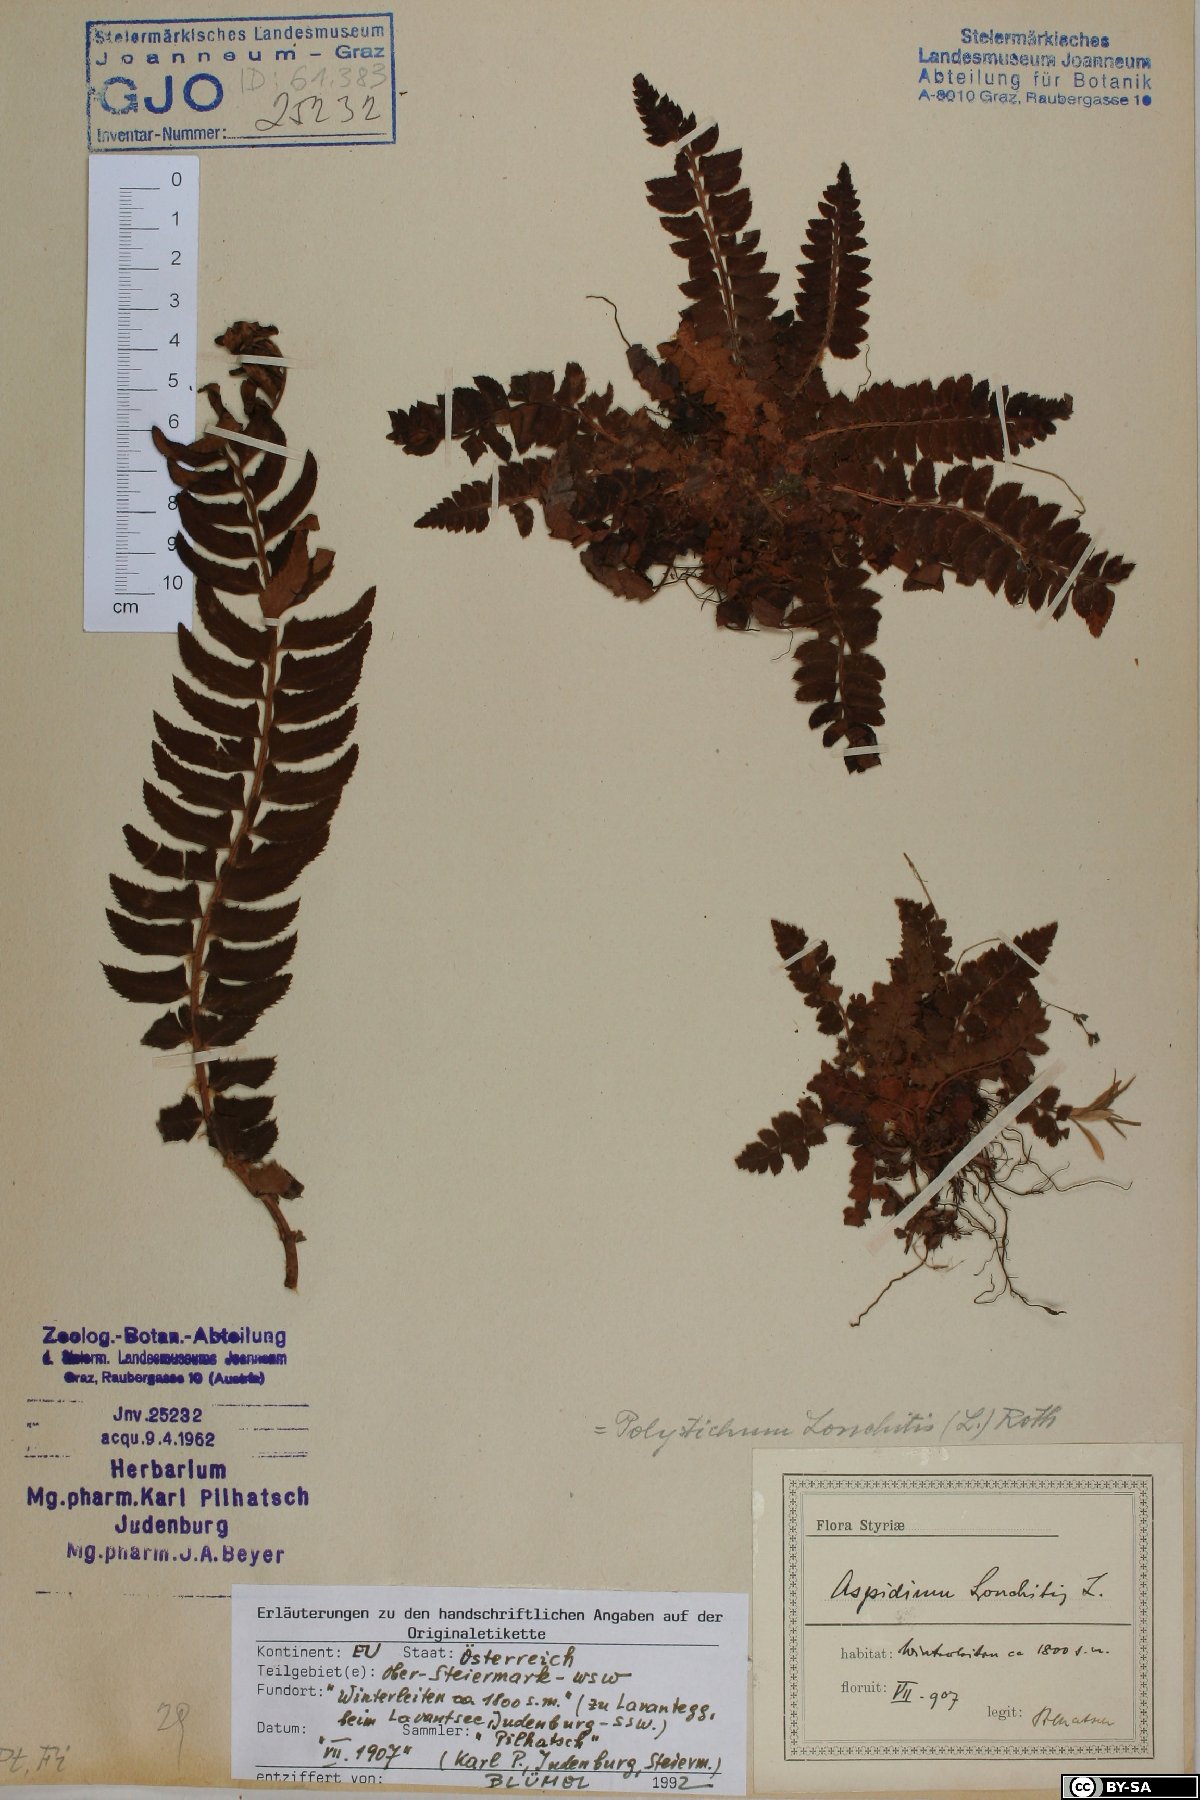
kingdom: Plantae
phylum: Tracheophyta
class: Polypodiopsida
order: Polypodiales
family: Dryopteridaceae
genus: Polystichum
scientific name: Polystichum lonchitis
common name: Holly fern
